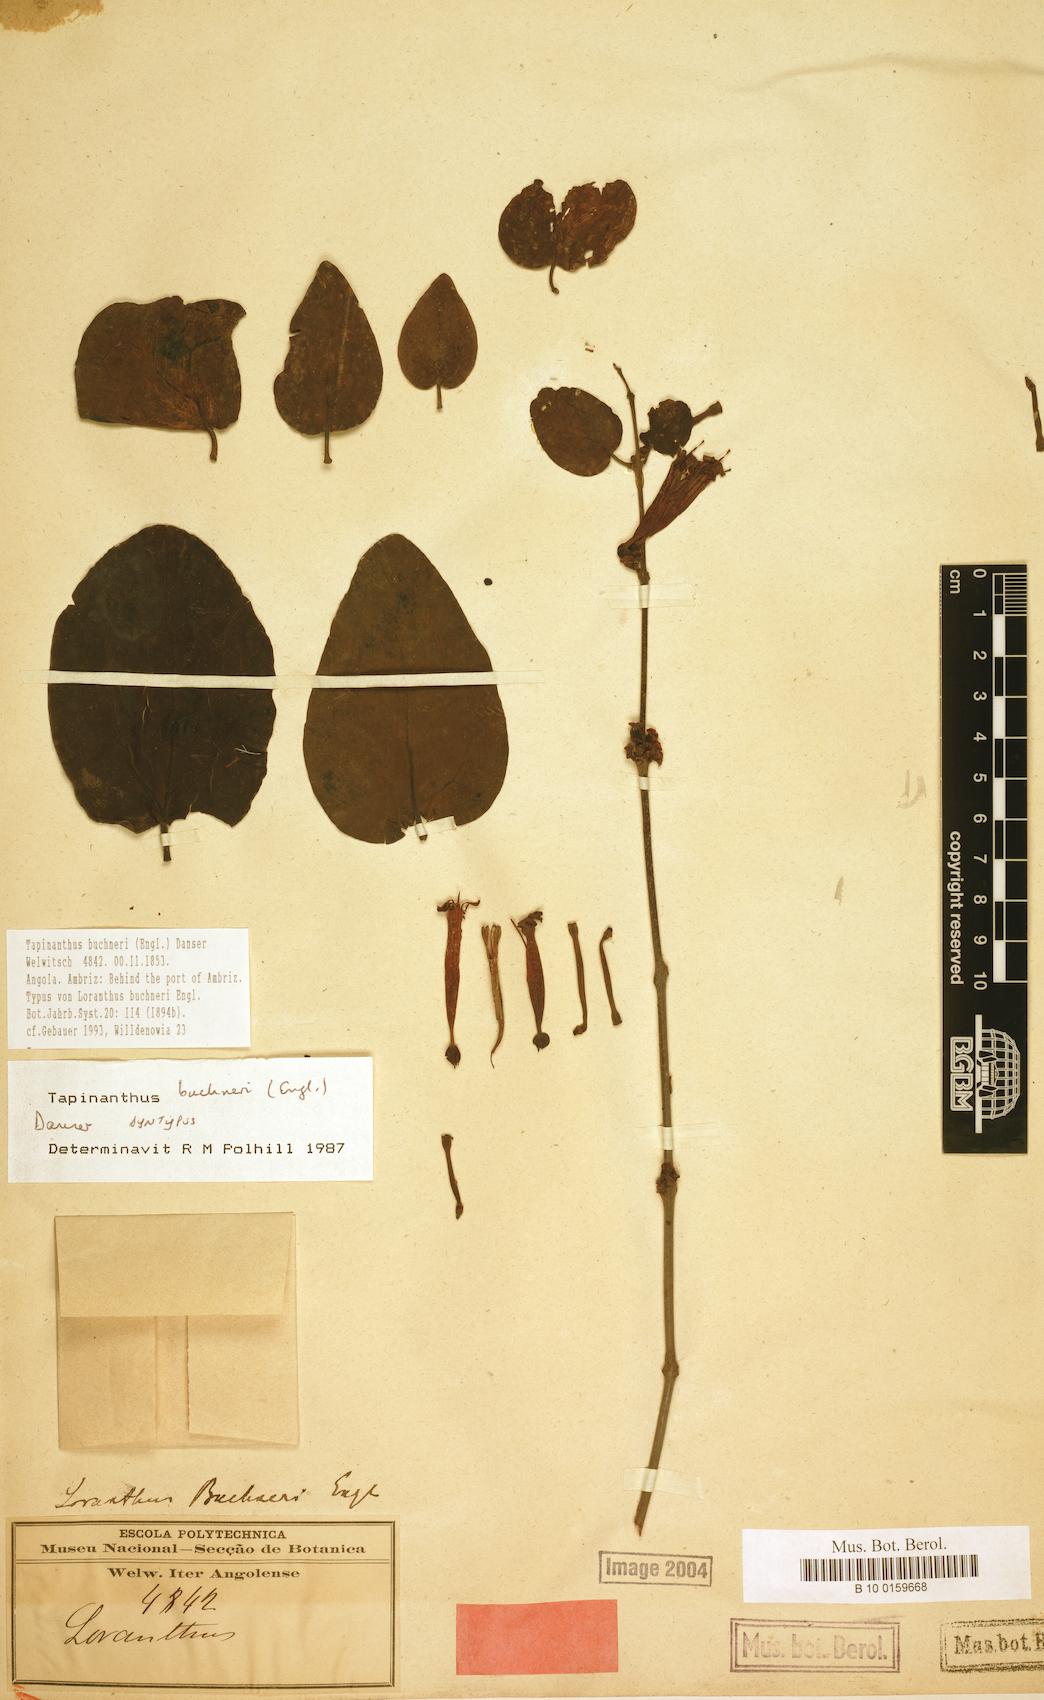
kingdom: Plantae
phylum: Tracheophyta
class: Magnoliopsida
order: Santalales
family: Loranthaceae
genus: Tapinanthus
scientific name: Tapinanthus buchneri
